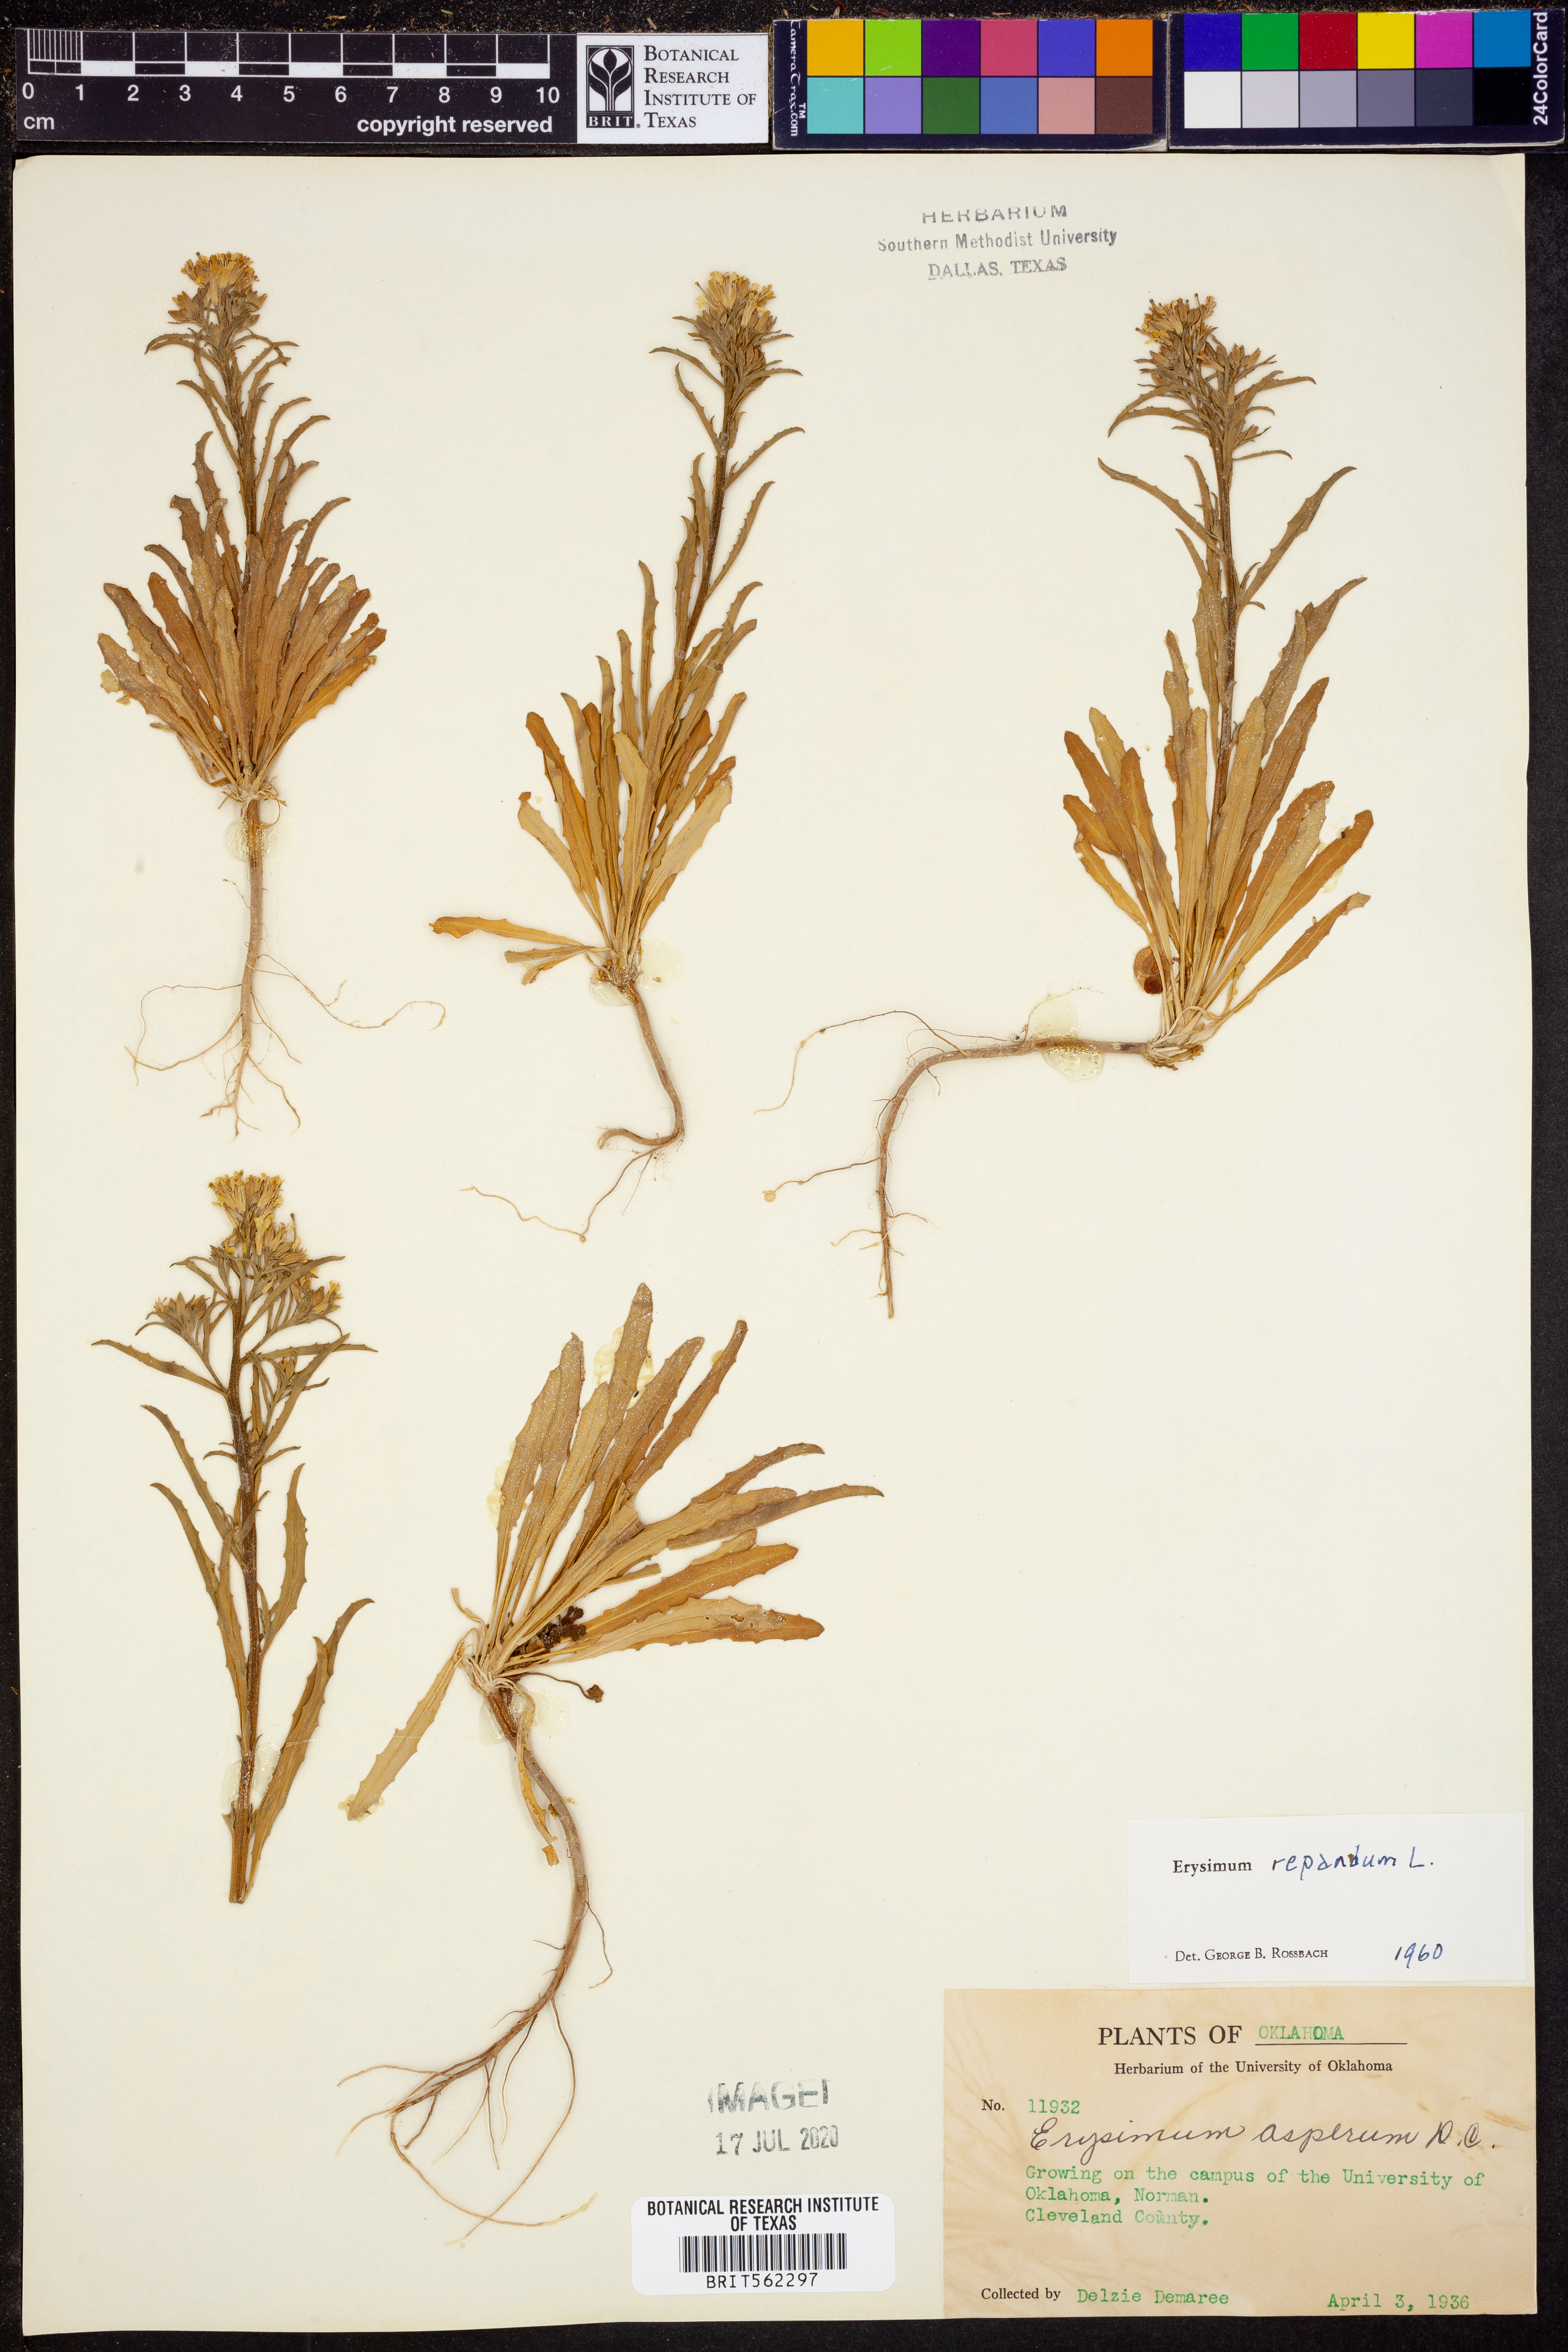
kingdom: Plantae
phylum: Tracheophyta
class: Magnoliopsida
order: Brassicales
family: Brassicaceae
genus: Erysimum
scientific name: Erysimum repandum
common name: Spreading wallflower
